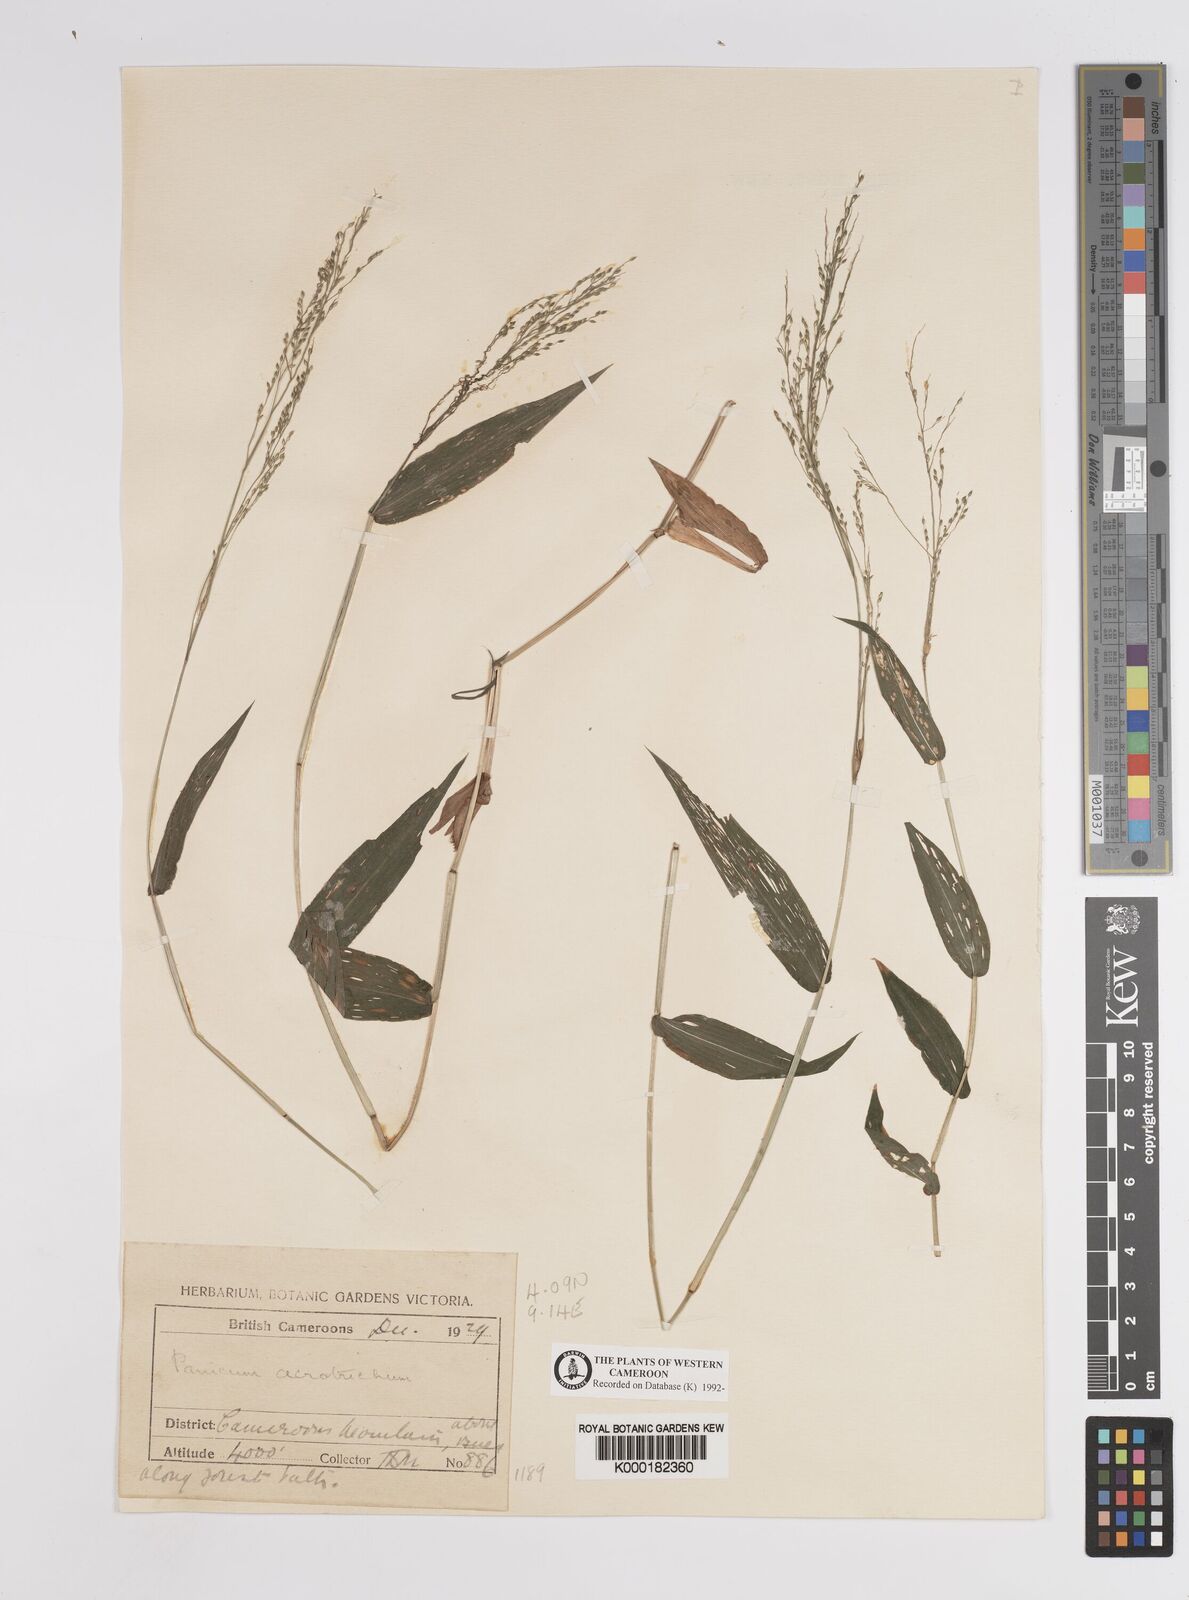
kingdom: Plantae
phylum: Tracheophyta
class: Liliopsida
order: Poales
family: Poaceae
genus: Panicum
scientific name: Panicum acrotrichum
